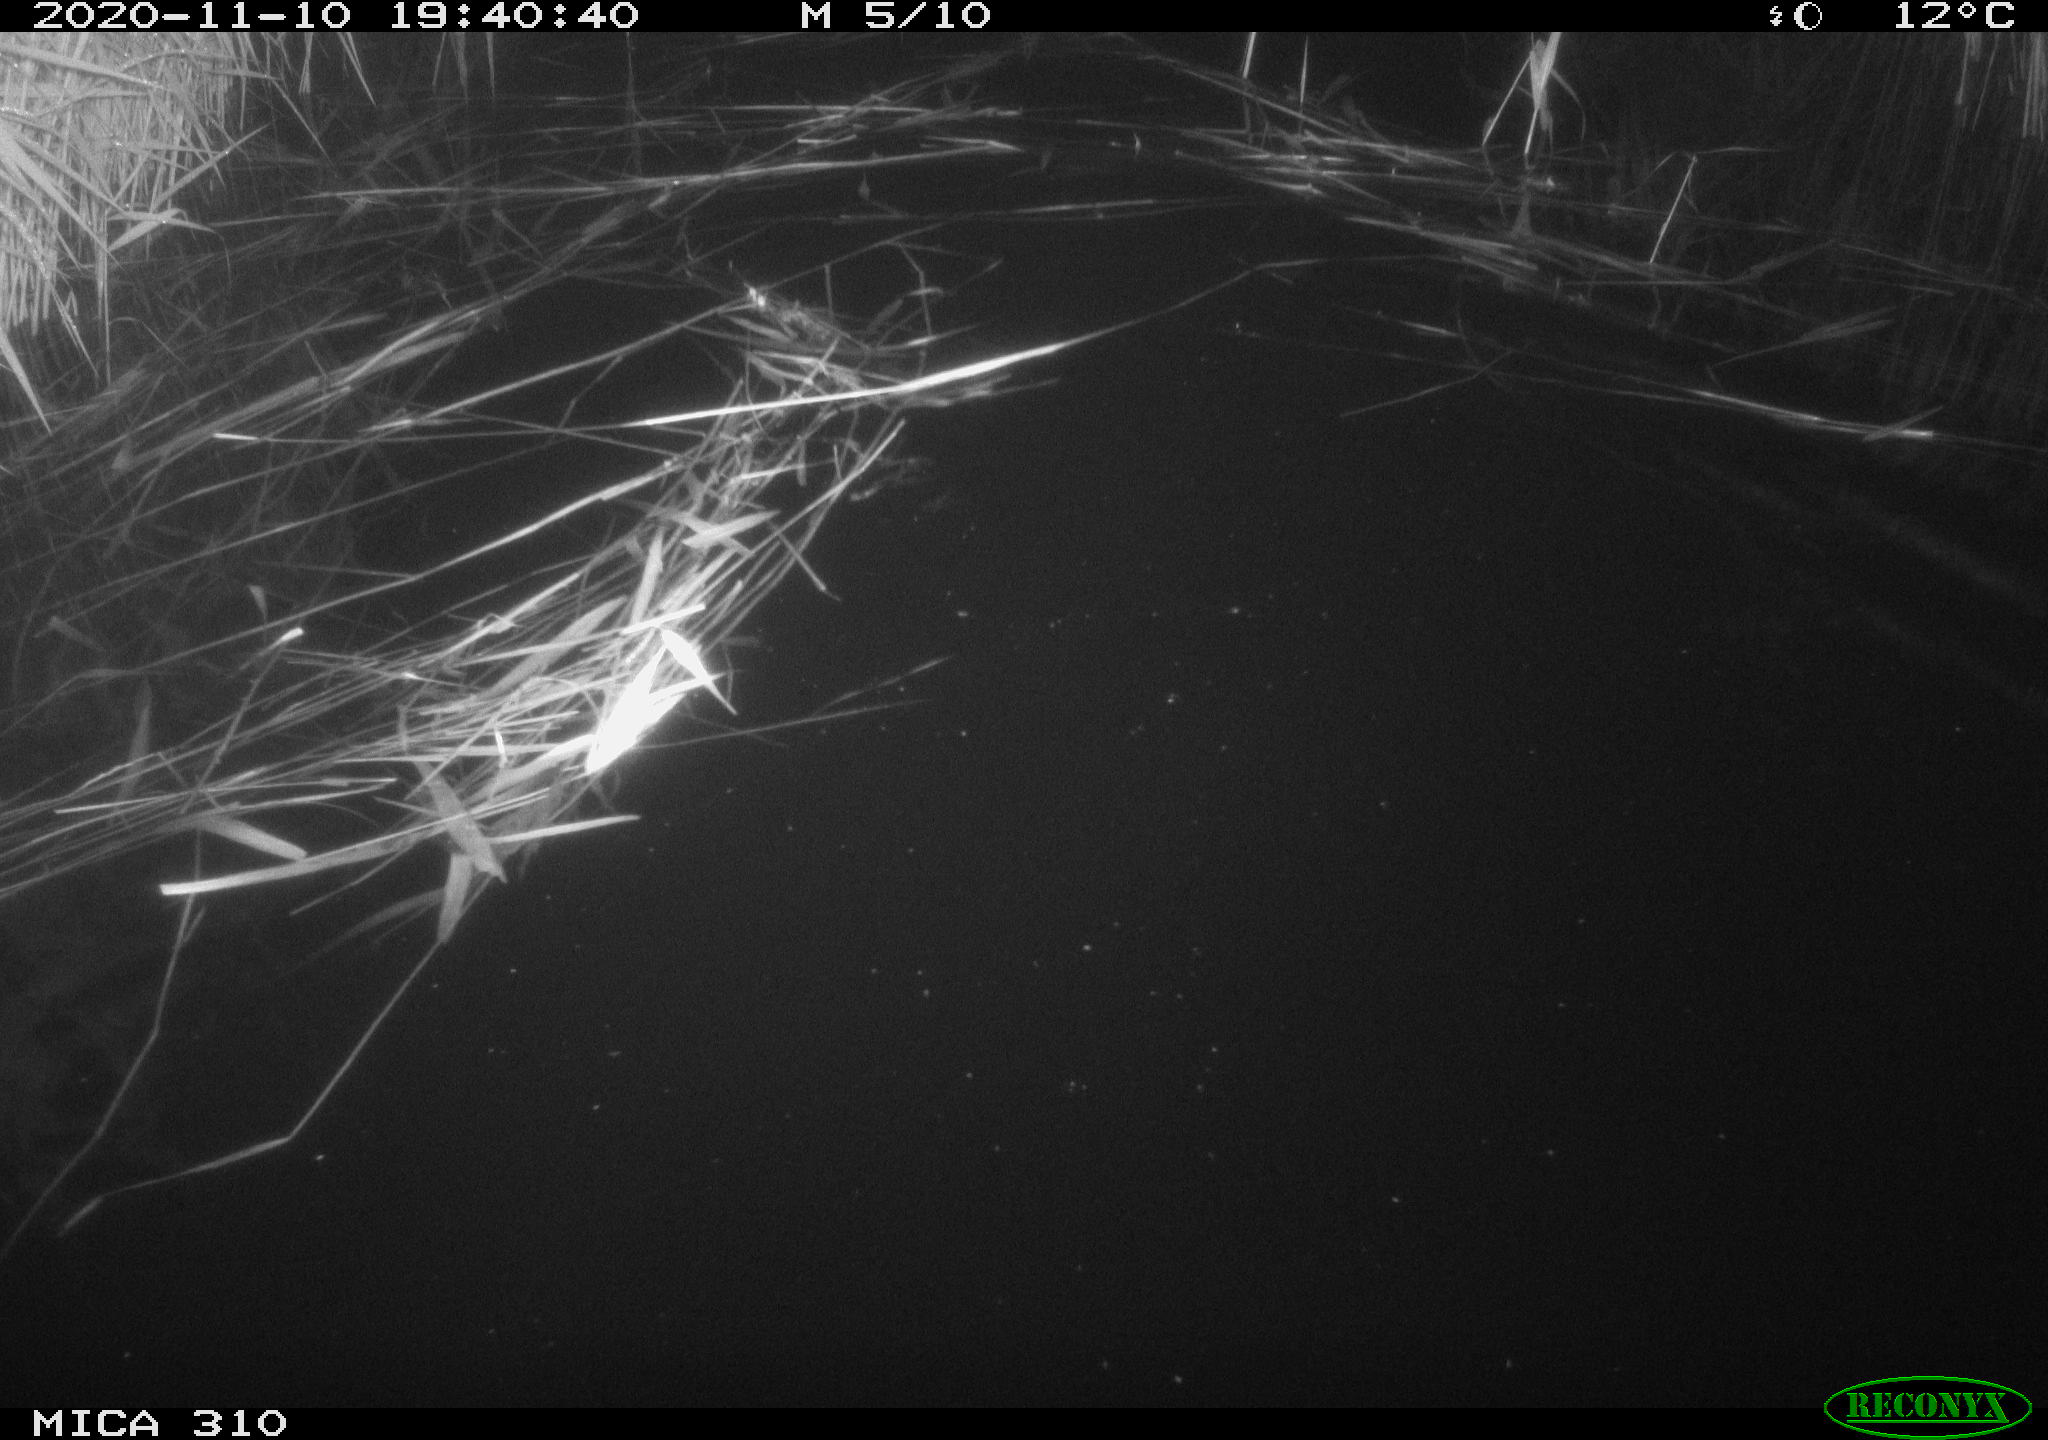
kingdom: Animalia
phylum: Chordata
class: Mammalia
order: Rodentia
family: Muridae
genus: Rattus
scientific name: Rattus norvegicus
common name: Brown rat
